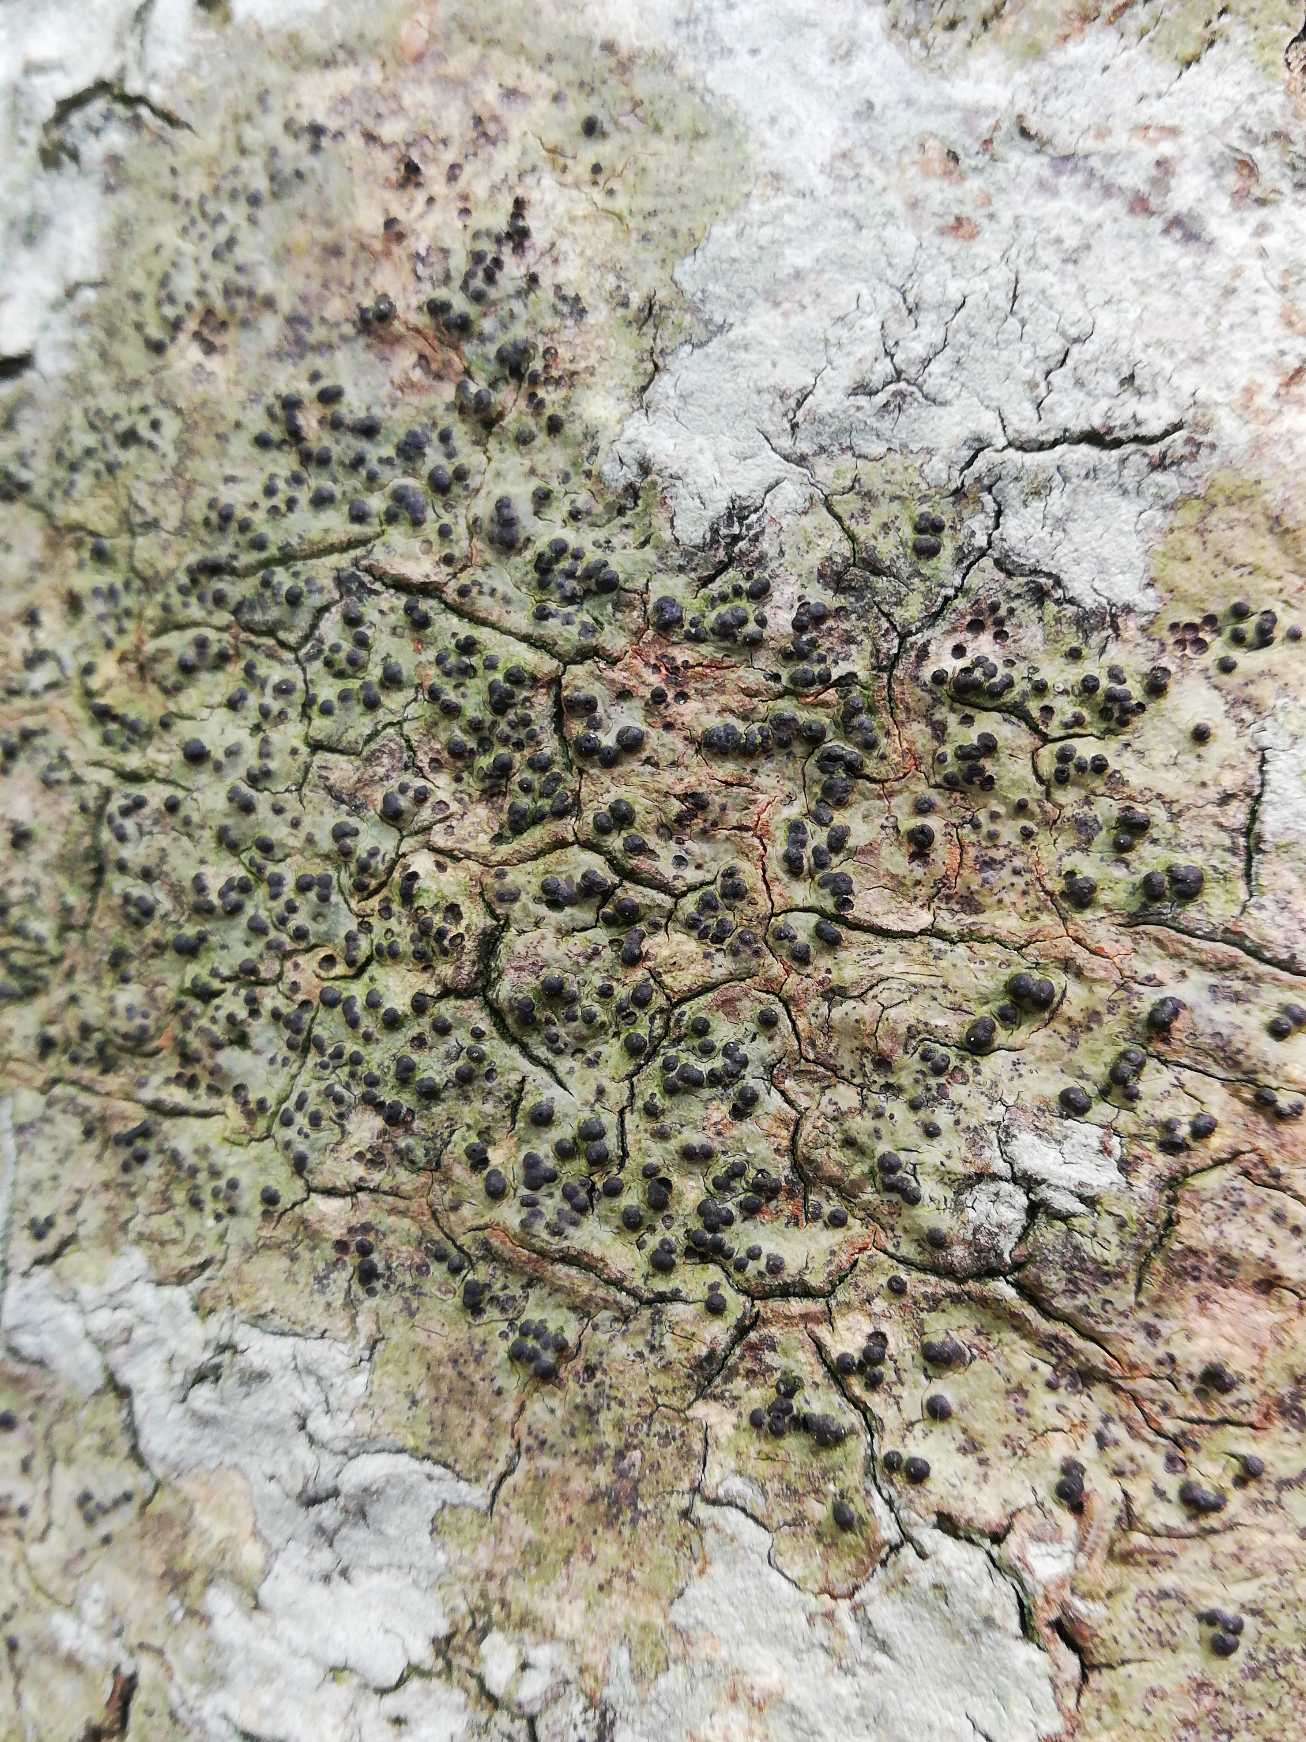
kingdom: Fungi
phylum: Ascomycota
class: Eurotiomycetes
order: Pyrenulales
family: Pyrenulaceae
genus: Pyrenula
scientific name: Pyrenula nitida
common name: Glinsende kernelav
